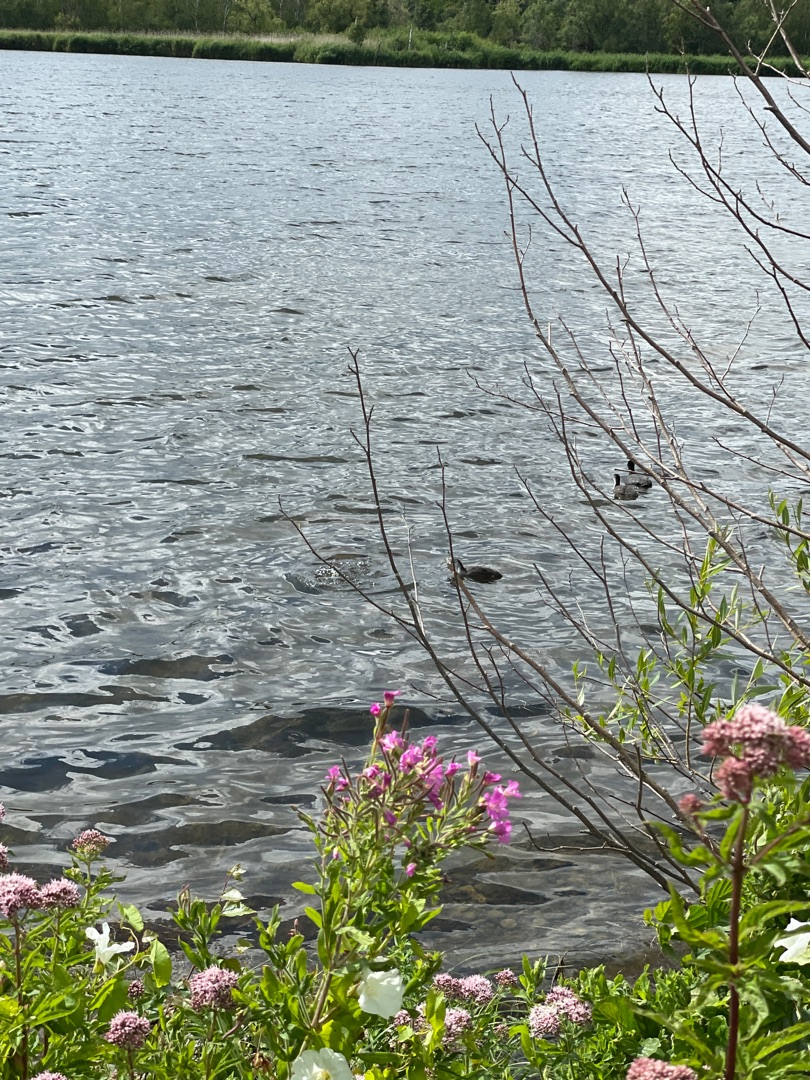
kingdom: Animalia
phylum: Chordata
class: Aves
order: Gruiformes
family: Rallidae
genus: Fulica
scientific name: Fulica atra
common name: Blishøne
